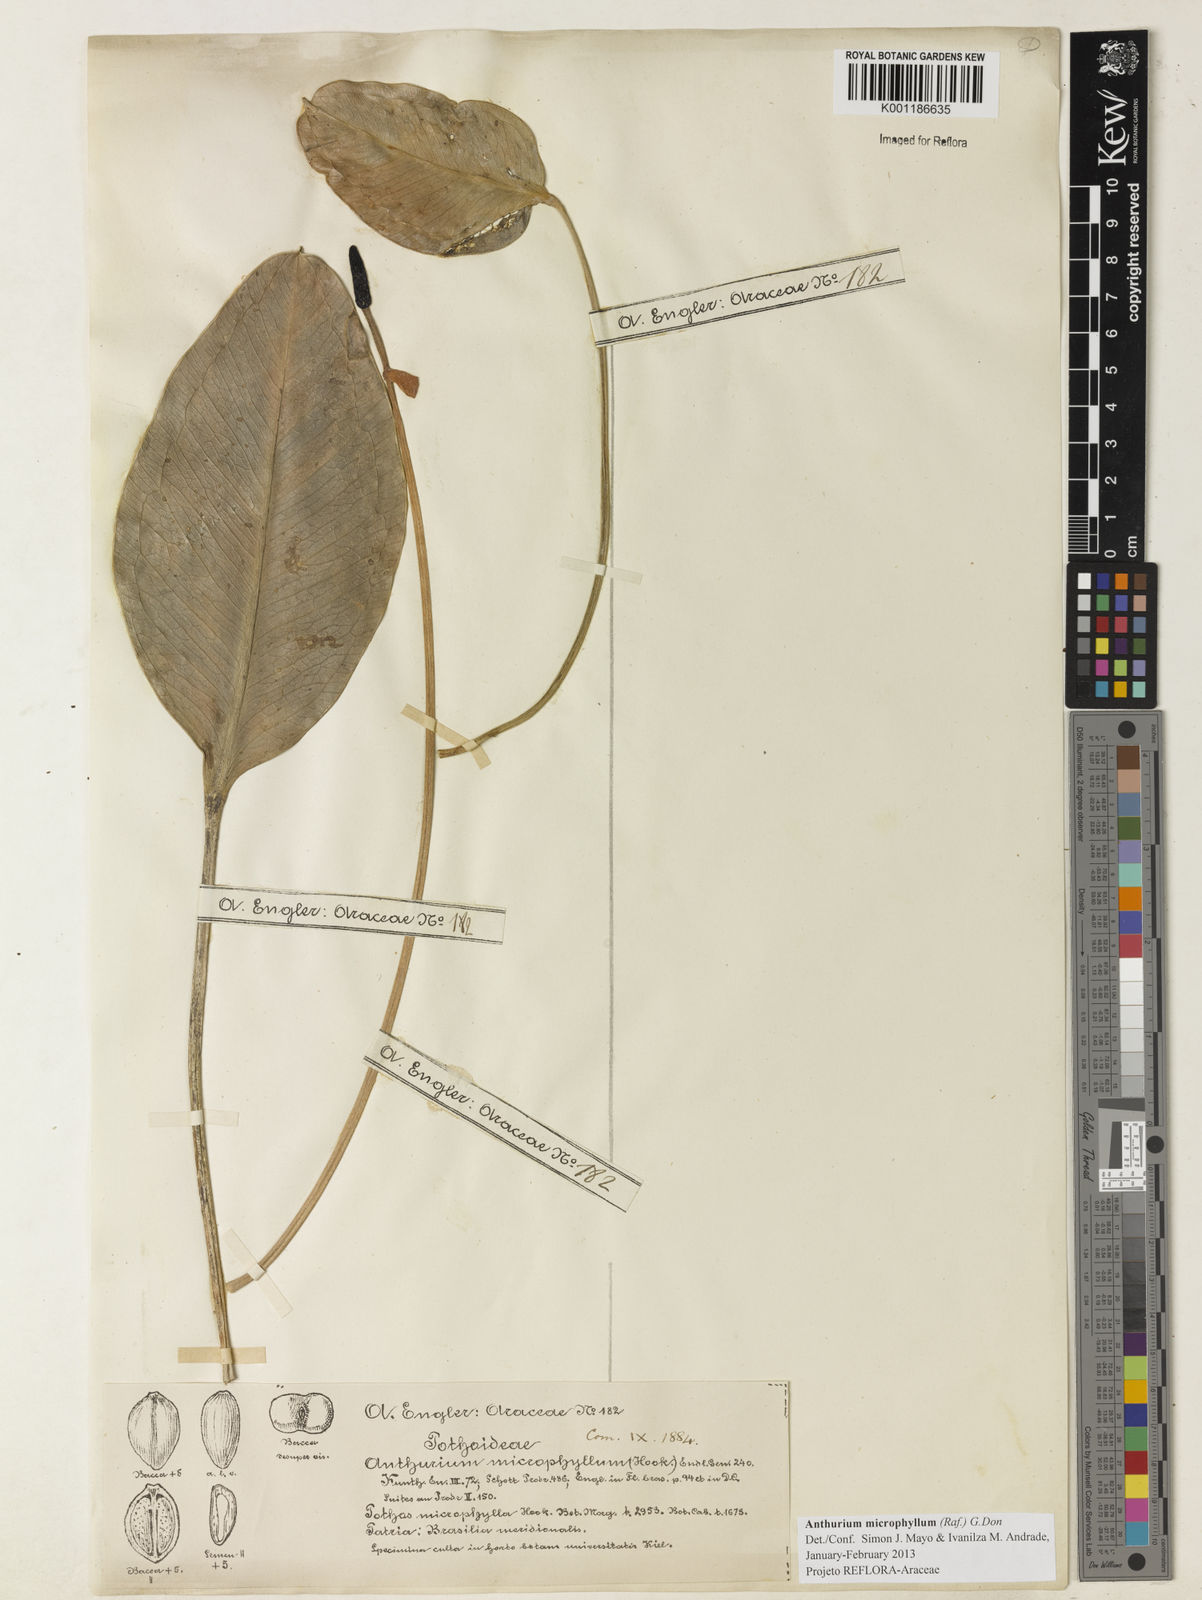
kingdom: Plantae
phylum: Tracheophyta
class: Liliopsida
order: Alismatales
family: Araceae
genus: Anthurium
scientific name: Anthurium microphyllum
